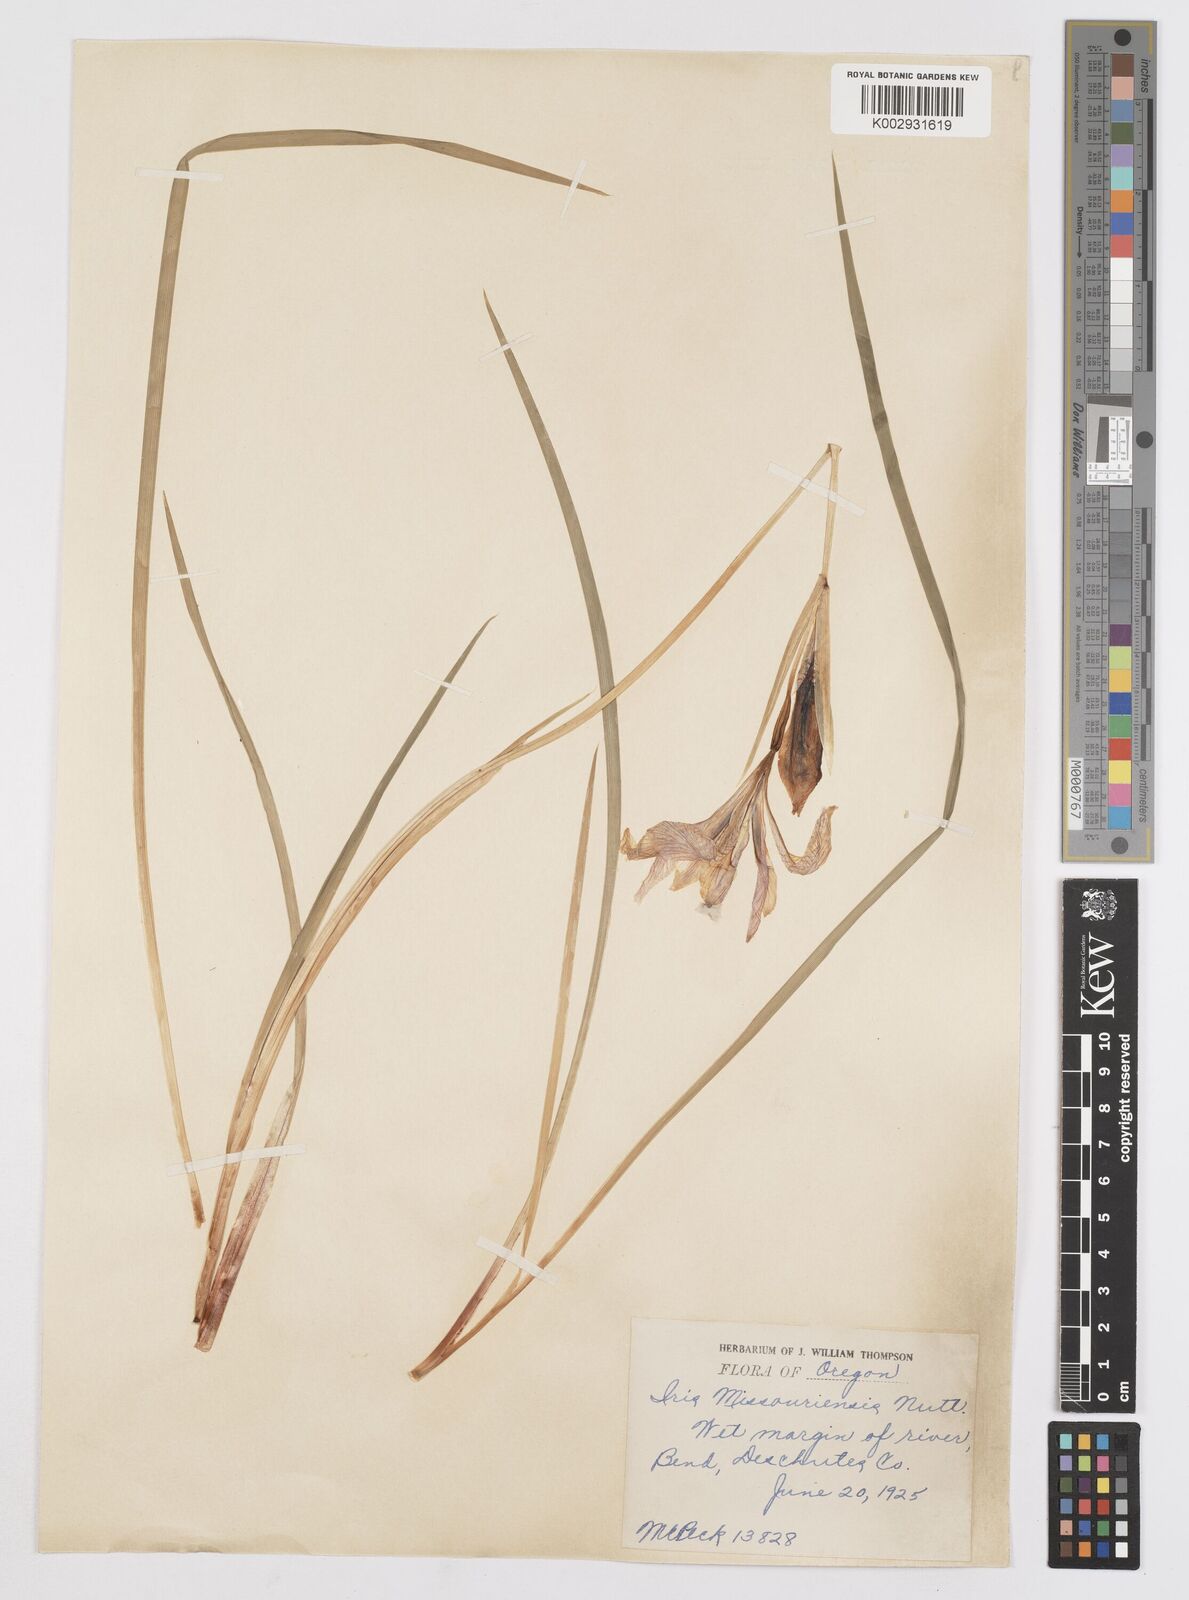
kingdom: Plantae
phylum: Tracheophyta
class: Liliopsida
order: Asparagales
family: Iridaceae
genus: Iris
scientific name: Iris missouriensis
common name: Rocky mountain iris
